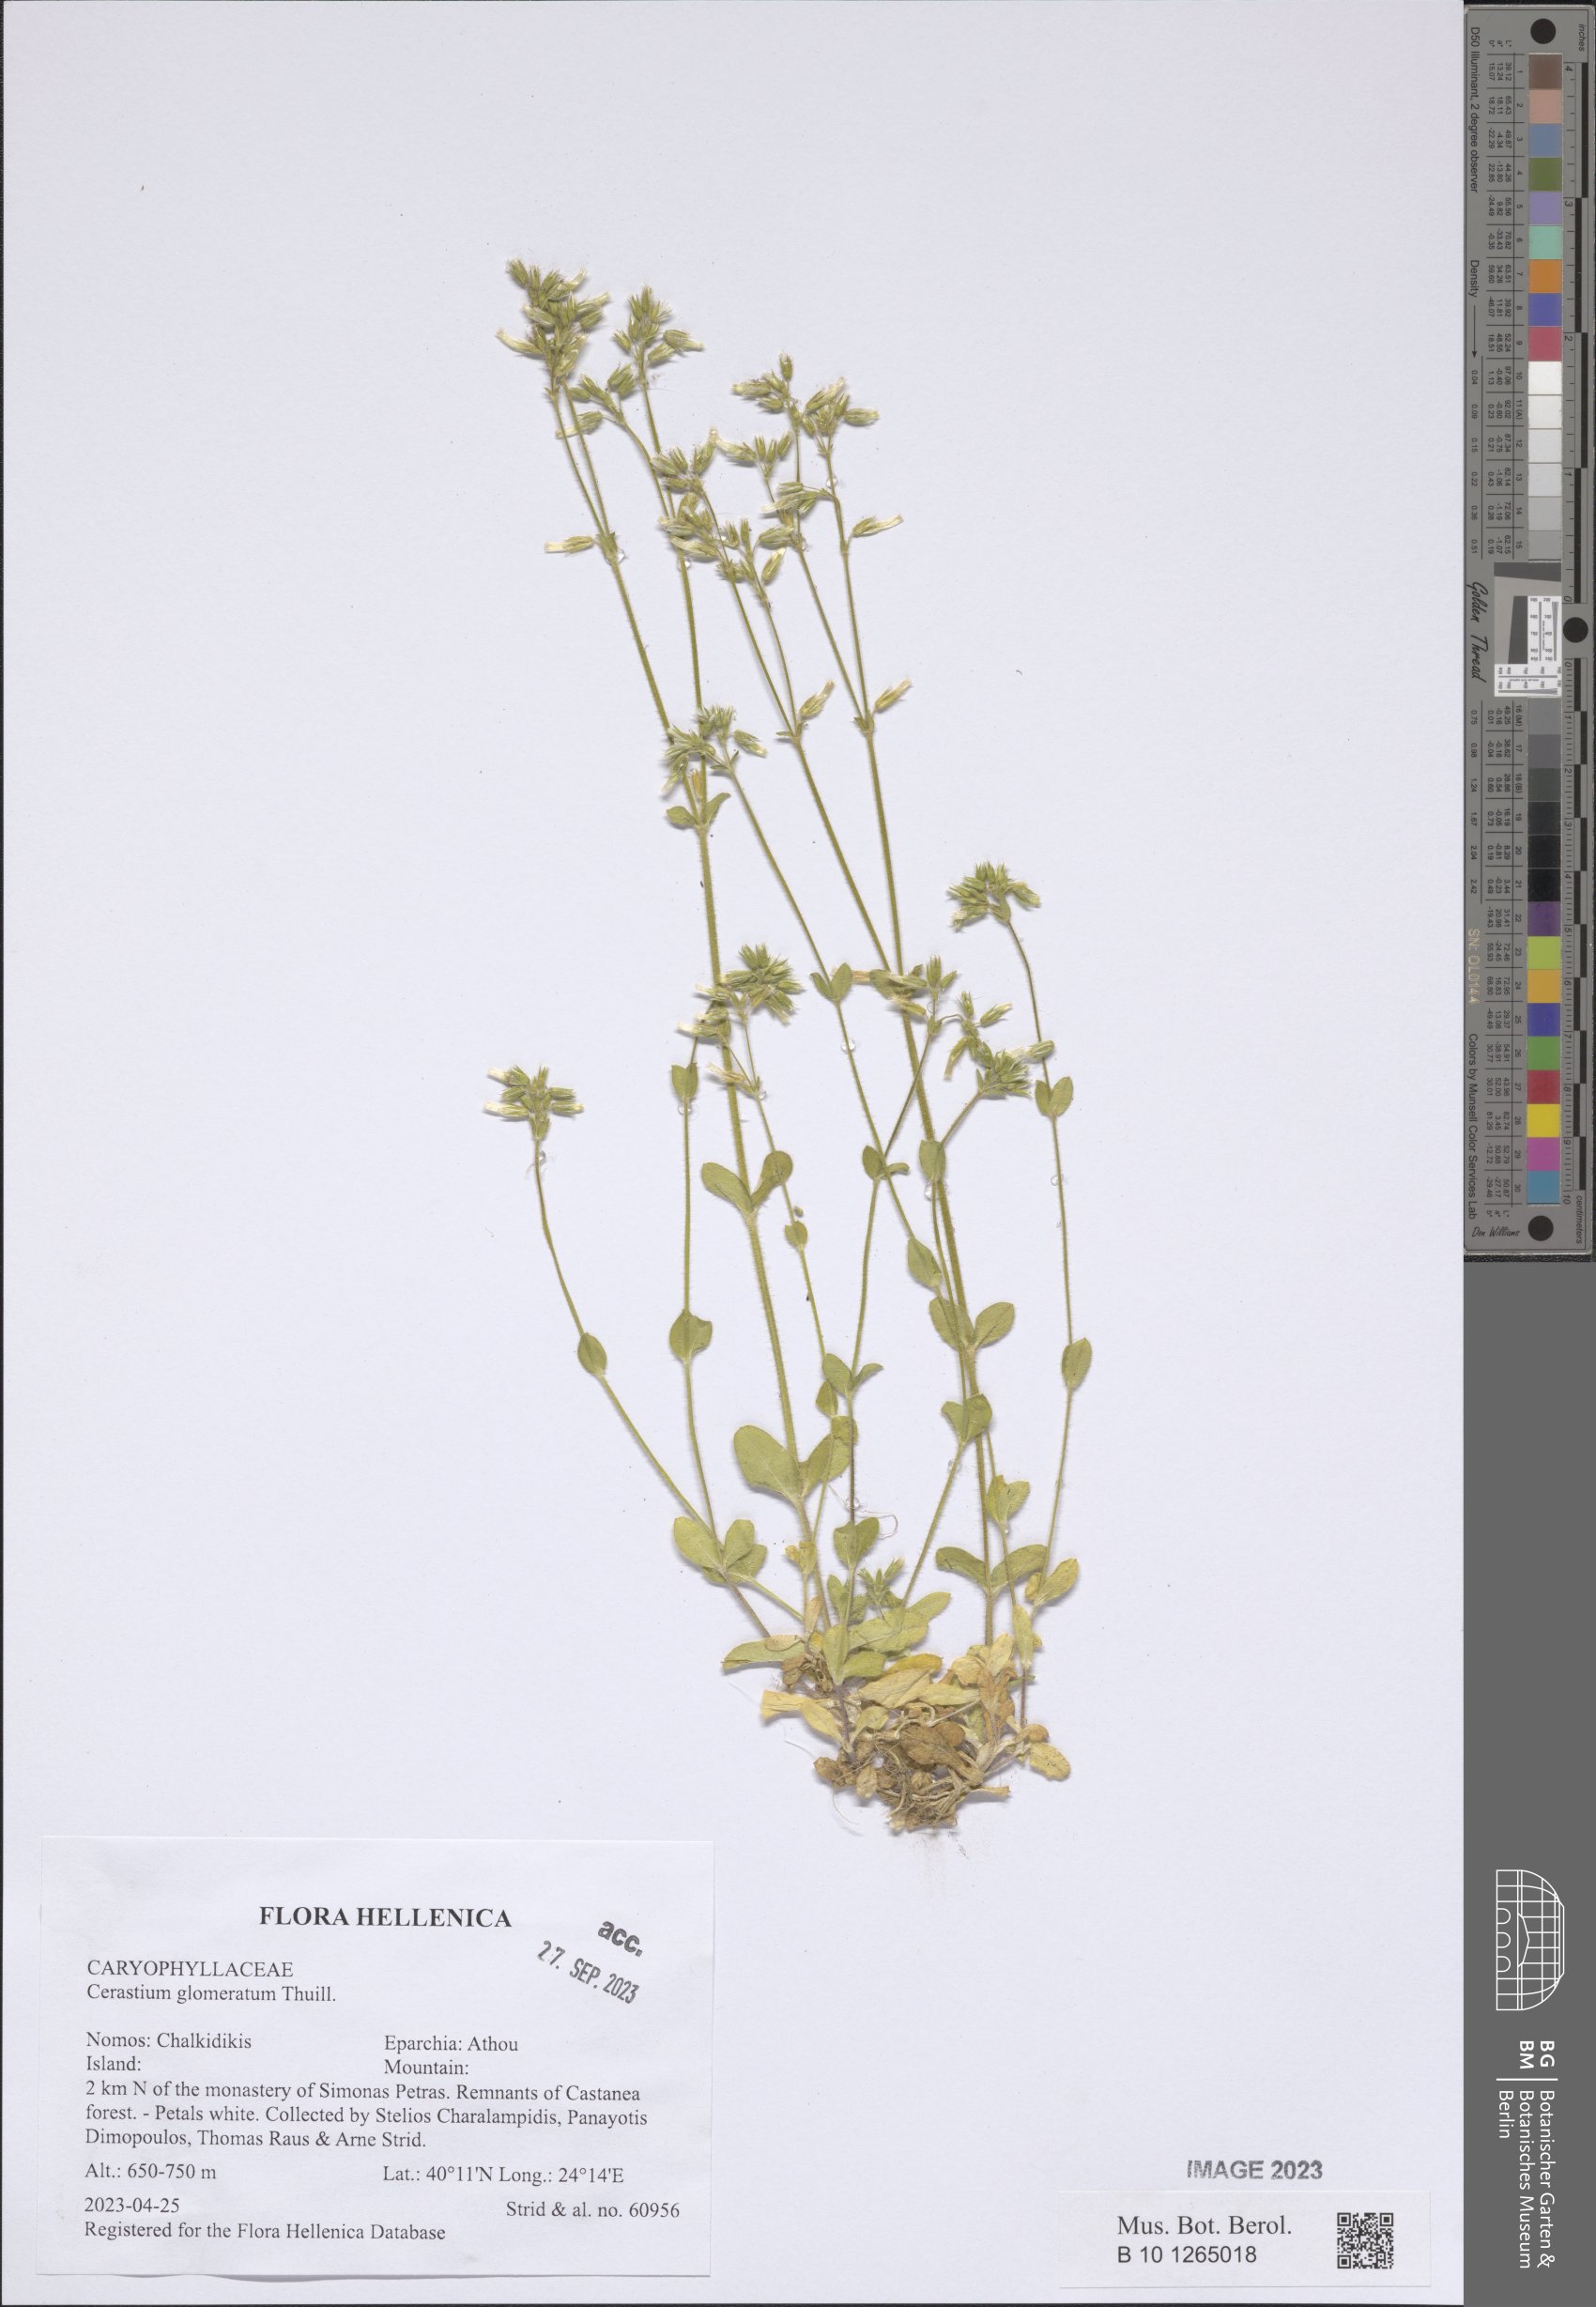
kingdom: Plantae
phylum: Tracheophyta
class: Magnoliopsida
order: Caryophyllales
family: Caryophyllaceae
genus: Cerastium
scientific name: Cerastium glomeratum
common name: Sticky chickweed
